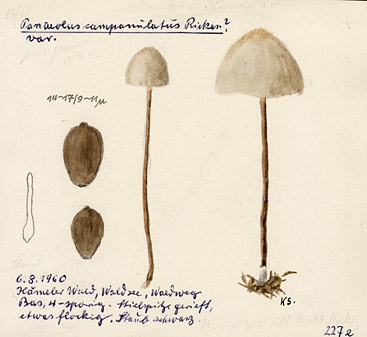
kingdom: Fungi
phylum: Basidiomycota
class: Agaricomycetes
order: Agaricales
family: Bolbitiaceae
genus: Panaeolus
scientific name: Panaeolus papilionaceus
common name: Petticoat mottlegill
